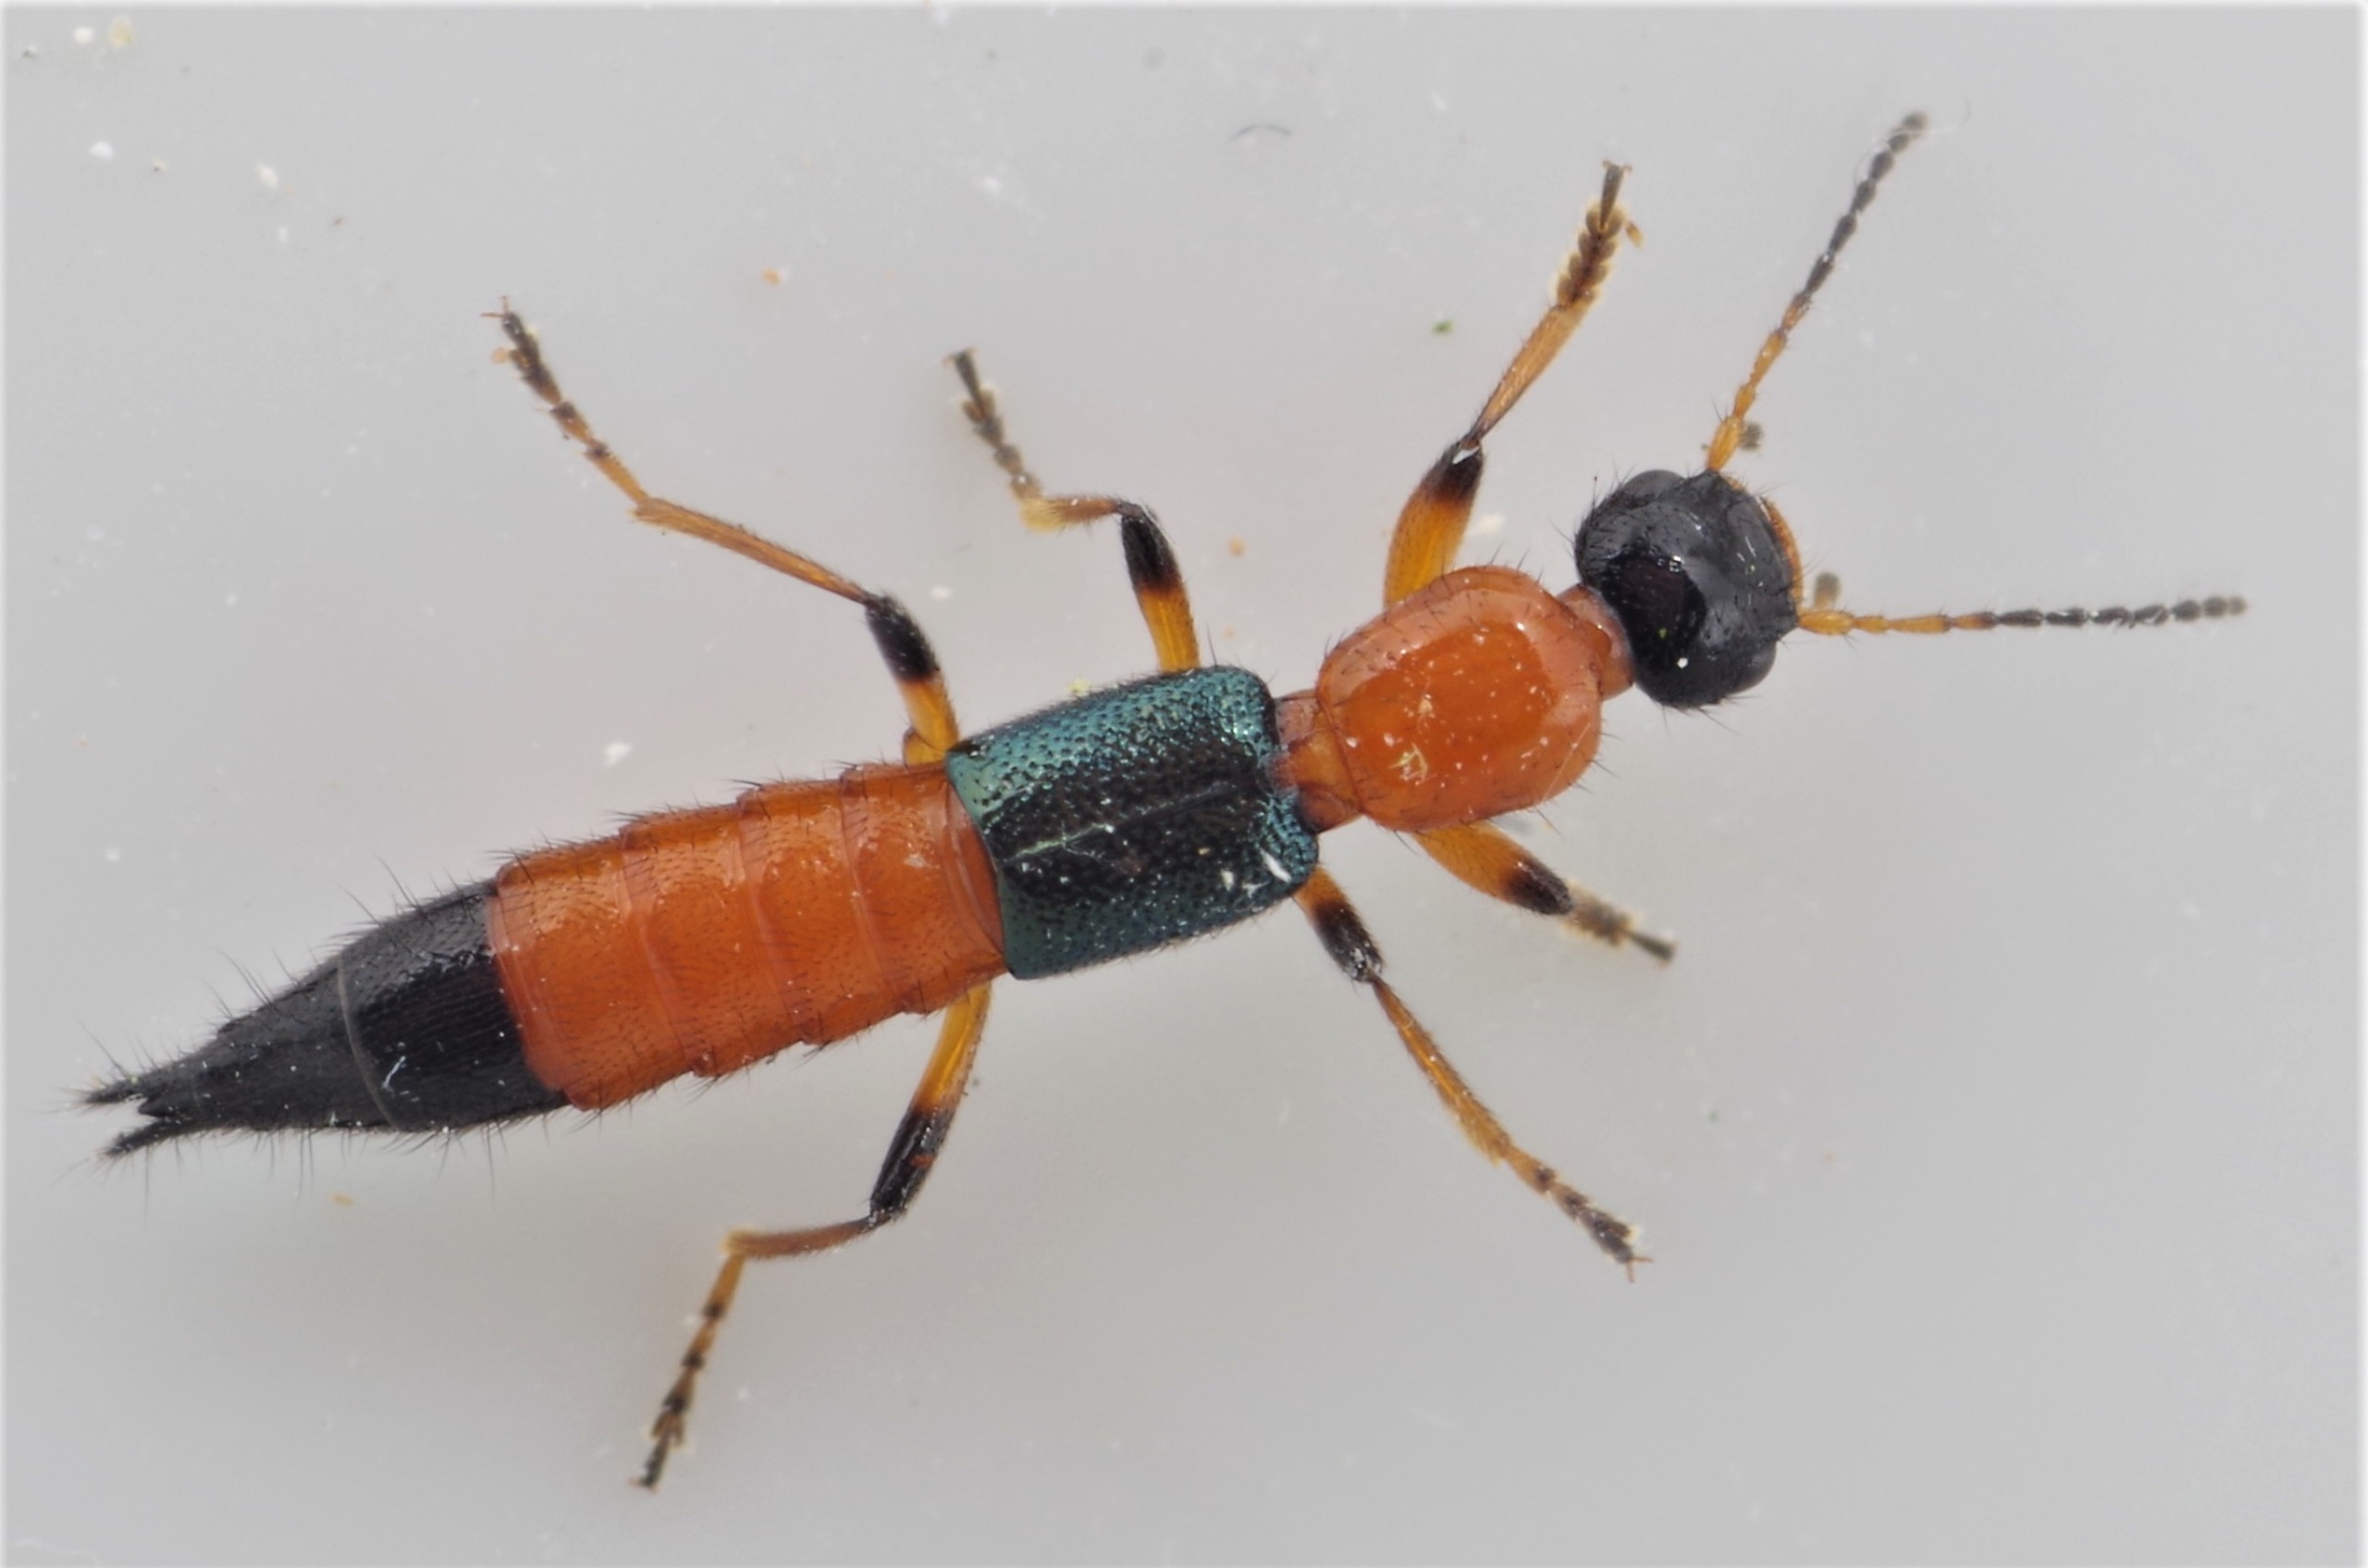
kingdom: Animalia
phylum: Arthropoda
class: Insecta
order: Coleoptera
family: Staphylinidae
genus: Paederus
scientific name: Paederus riparius
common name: Giftig rovbille
